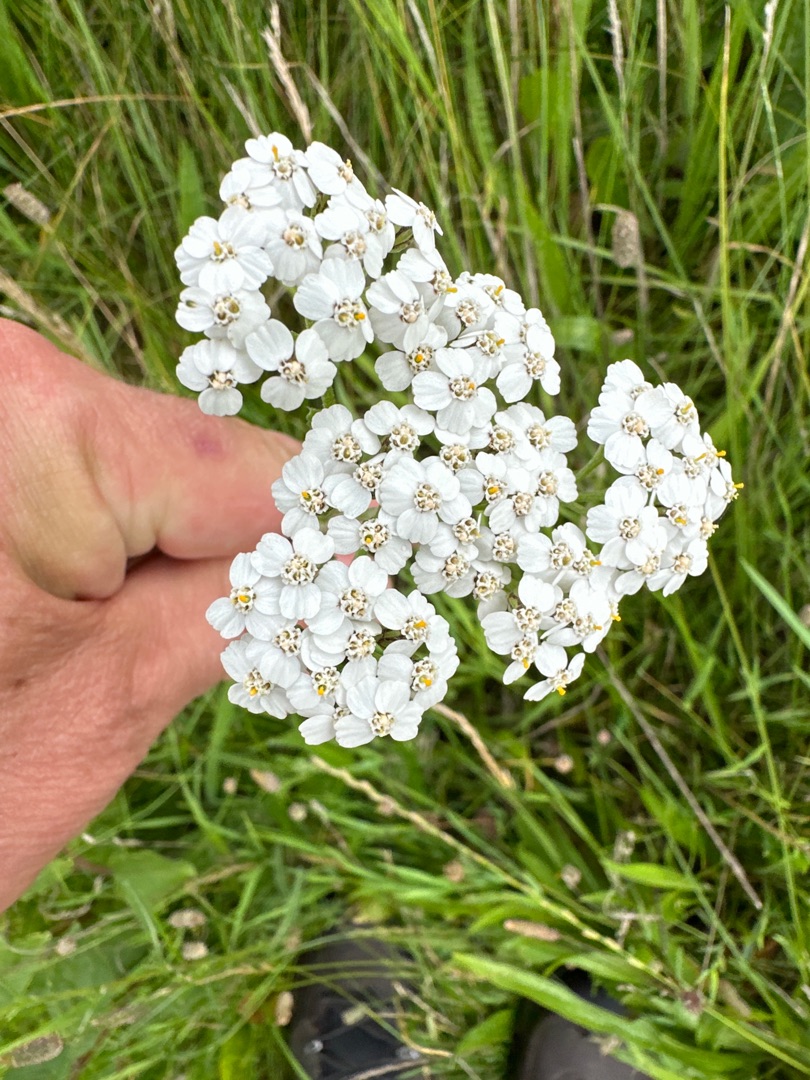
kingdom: Plantae
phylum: Tracheophyta
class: Magnoliopsida
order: Asterales
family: Asteraceae
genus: Achillea
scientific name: Achillea millefolium
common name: Almindelig røllike
